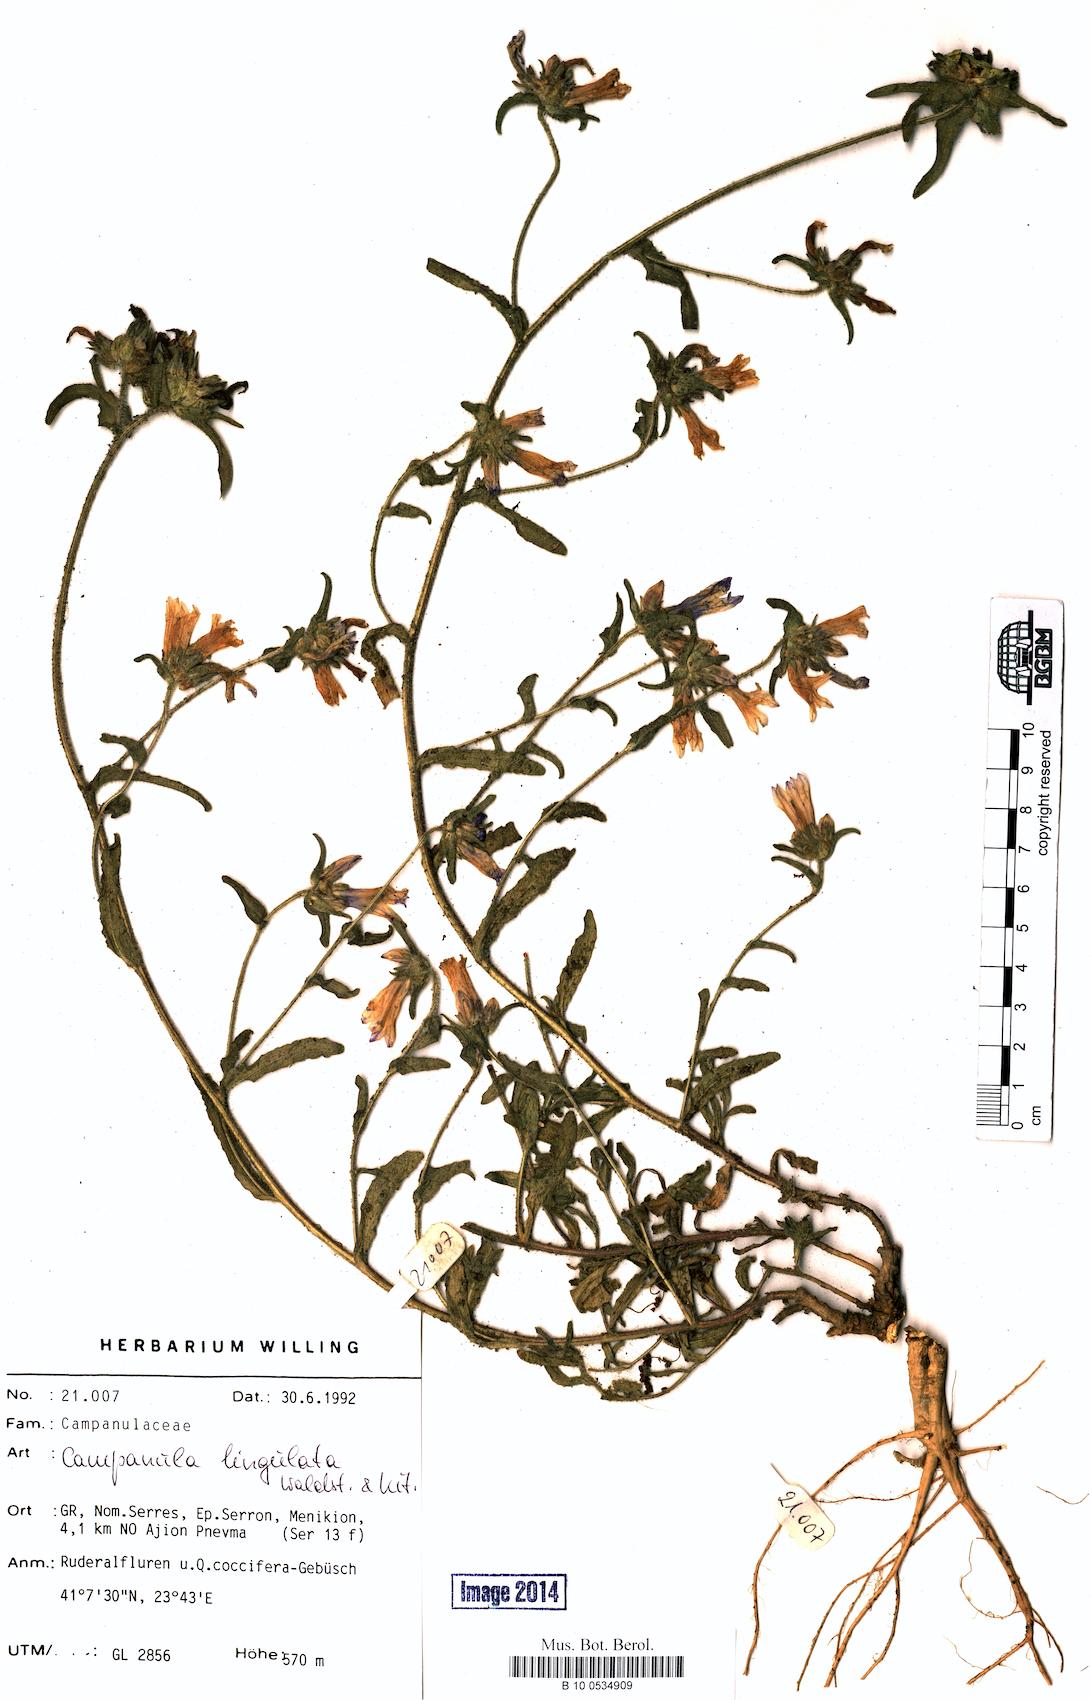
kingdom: Plantae
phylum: Tracheophyta
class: Magnoliopsida
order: Asterales
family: Campanulaceae
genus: Campanula
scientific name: Campanula lingulata
